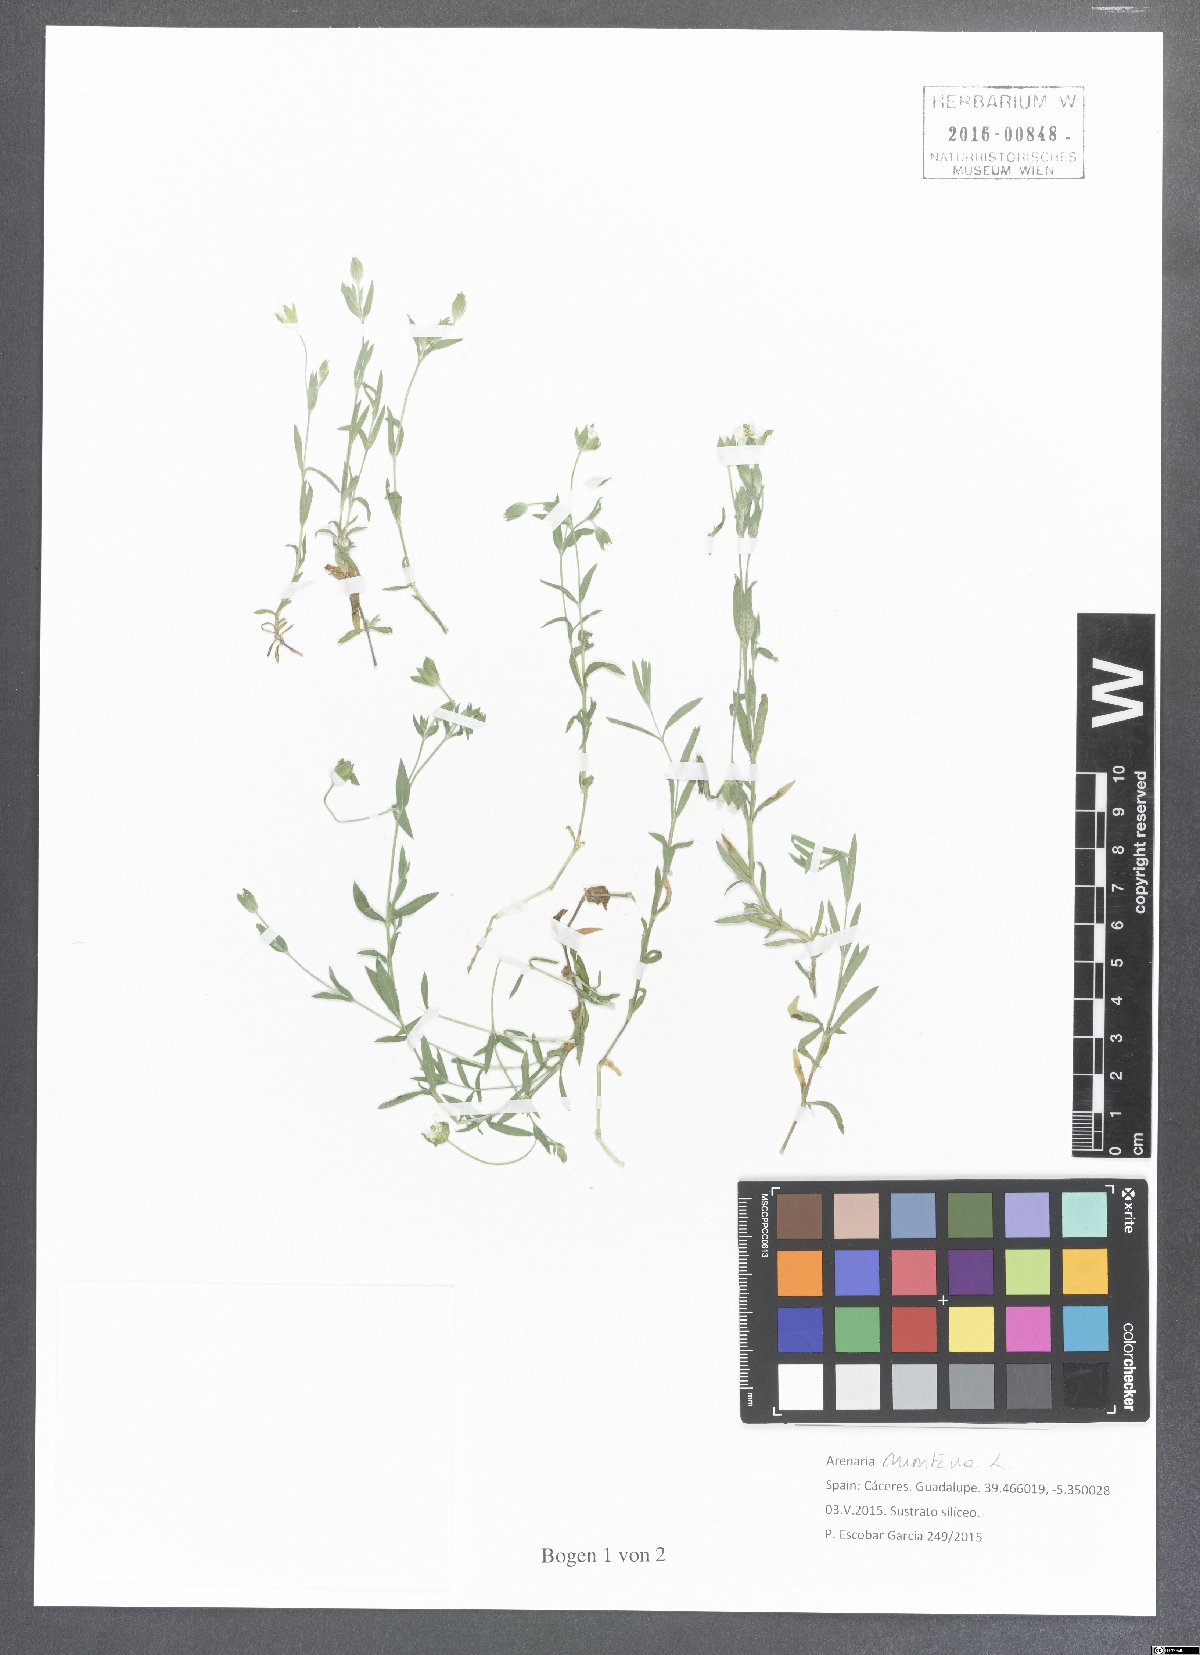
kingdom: Plantae
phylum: Tracheophyta
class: Magnoliopsida
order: Caryophyllales
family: Caryophyllaceae
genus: Arenaria
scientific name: Arenaria montana
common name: Mountain sandwort
